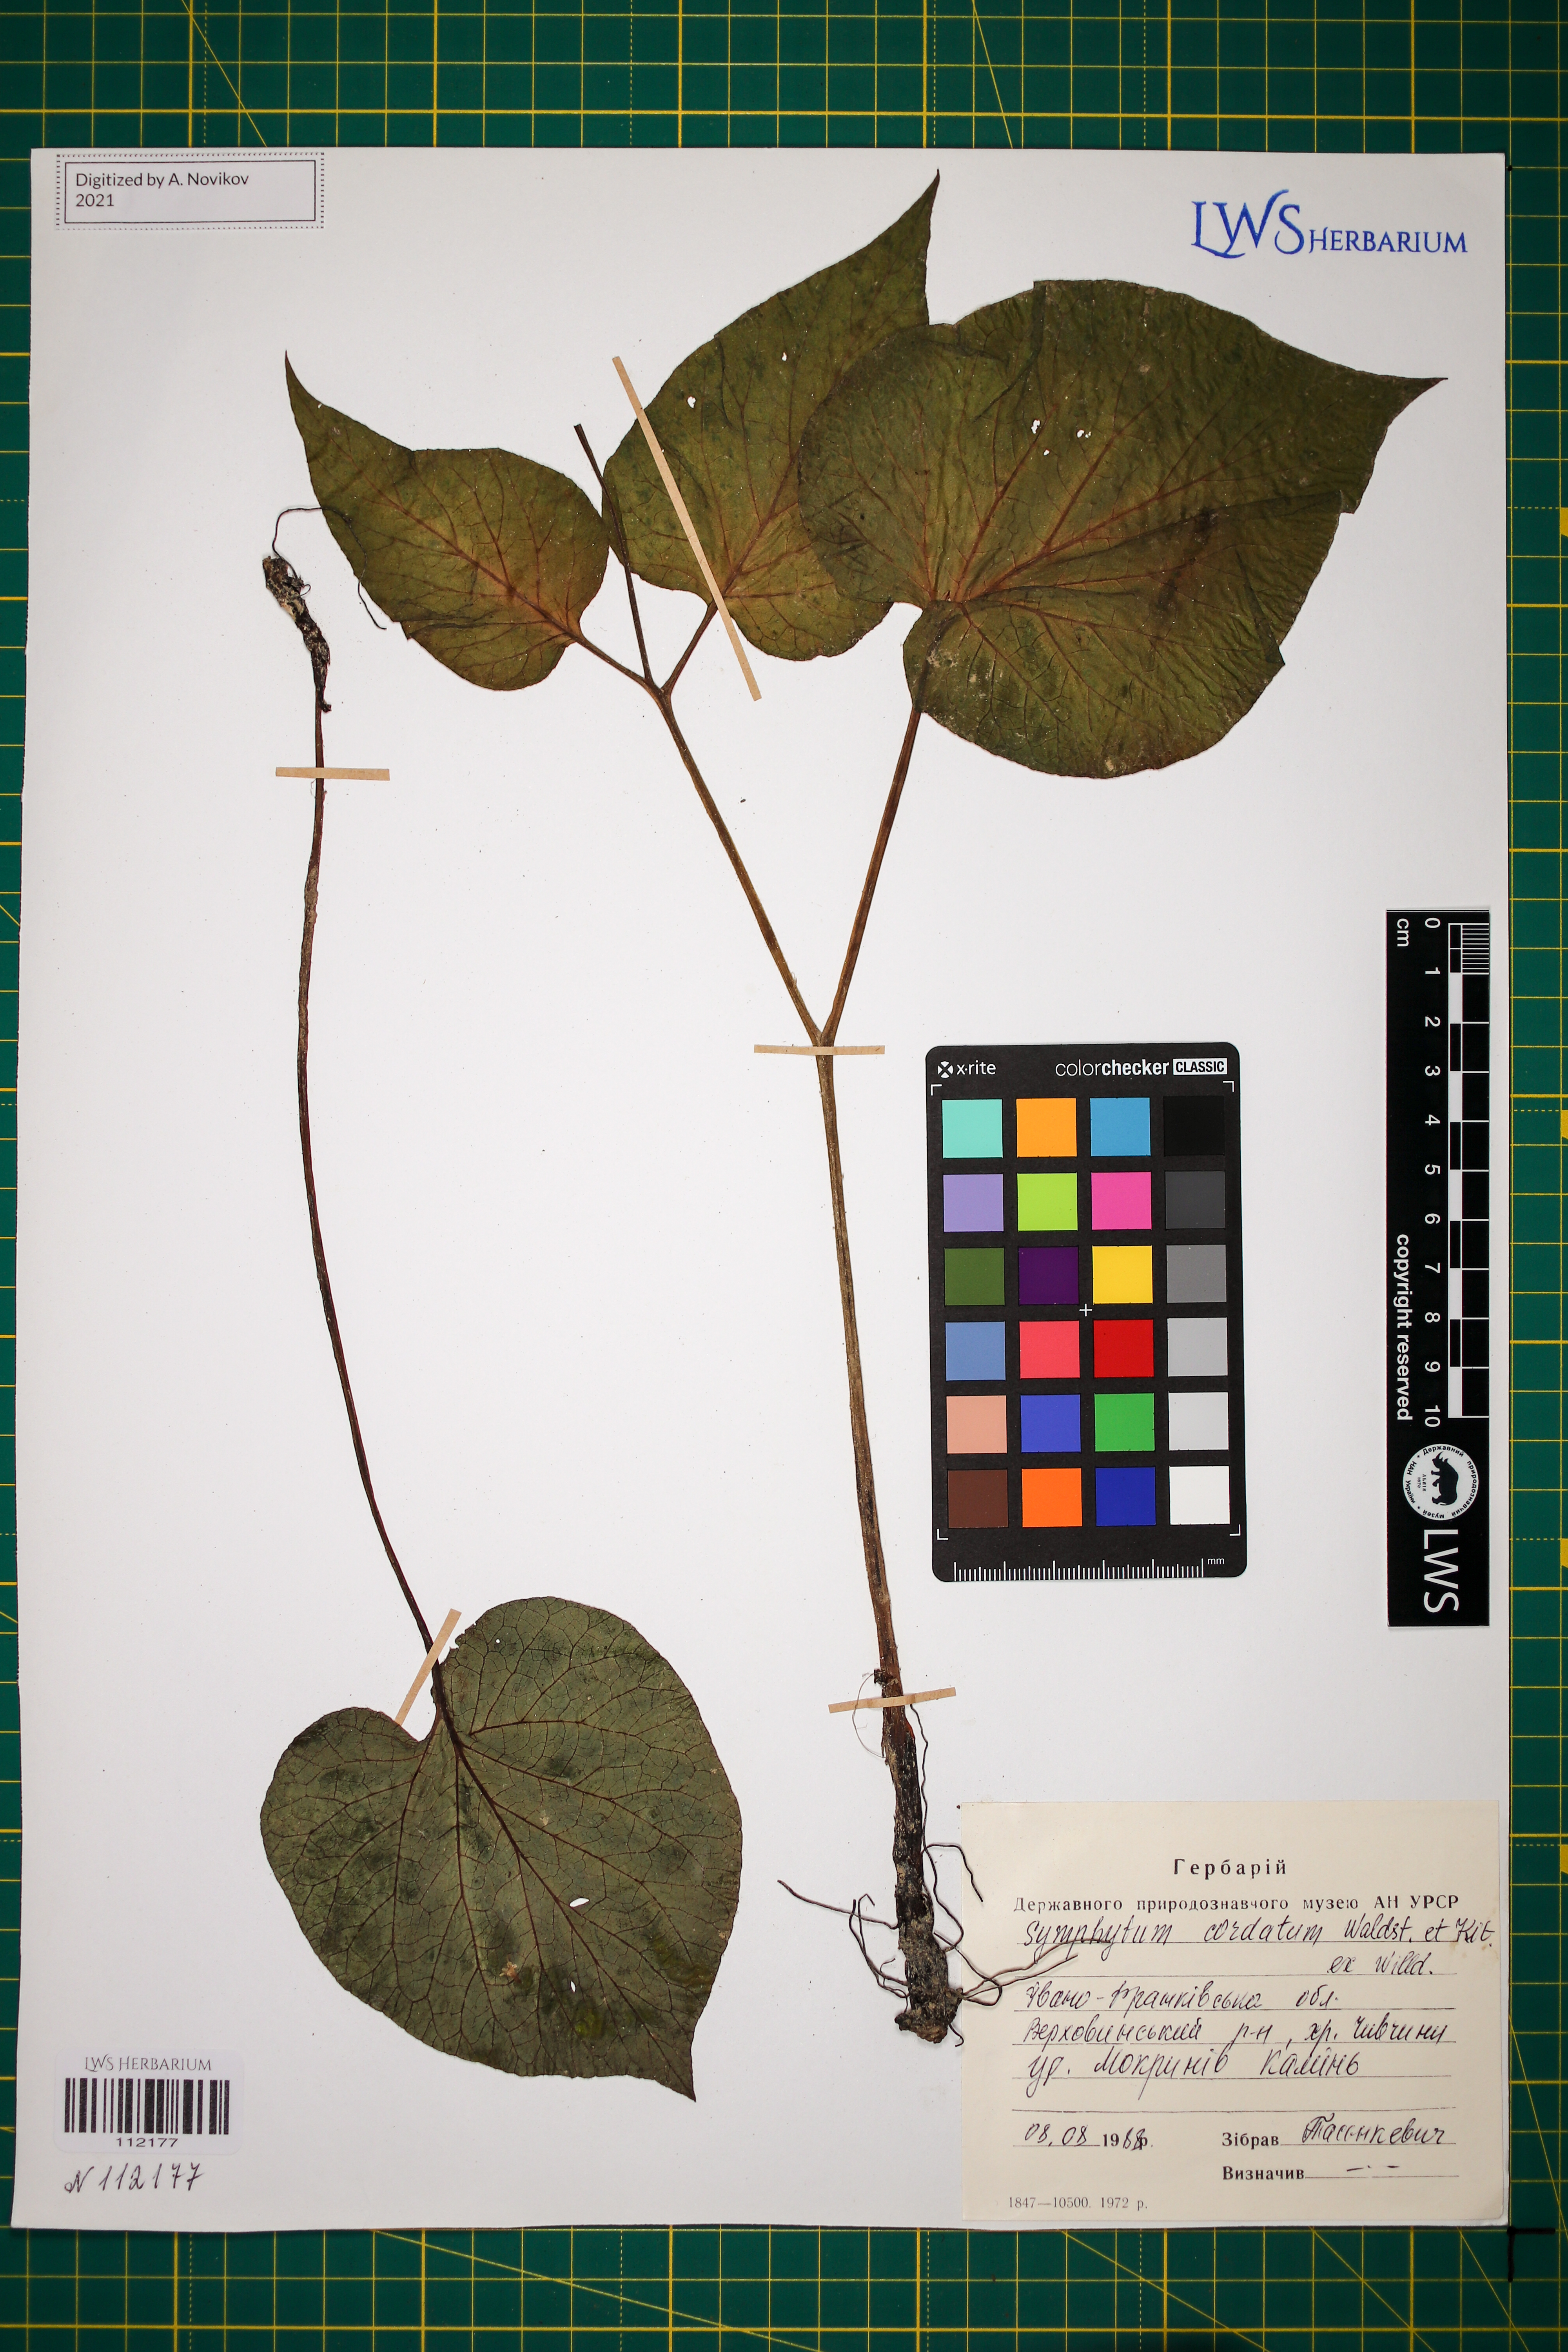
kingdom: Plantae
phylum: Tracheophyta
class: Magnoliopsida
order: Boraginales
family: Boraginaceae
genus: Symphytum
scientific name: Symphytum cordatum
